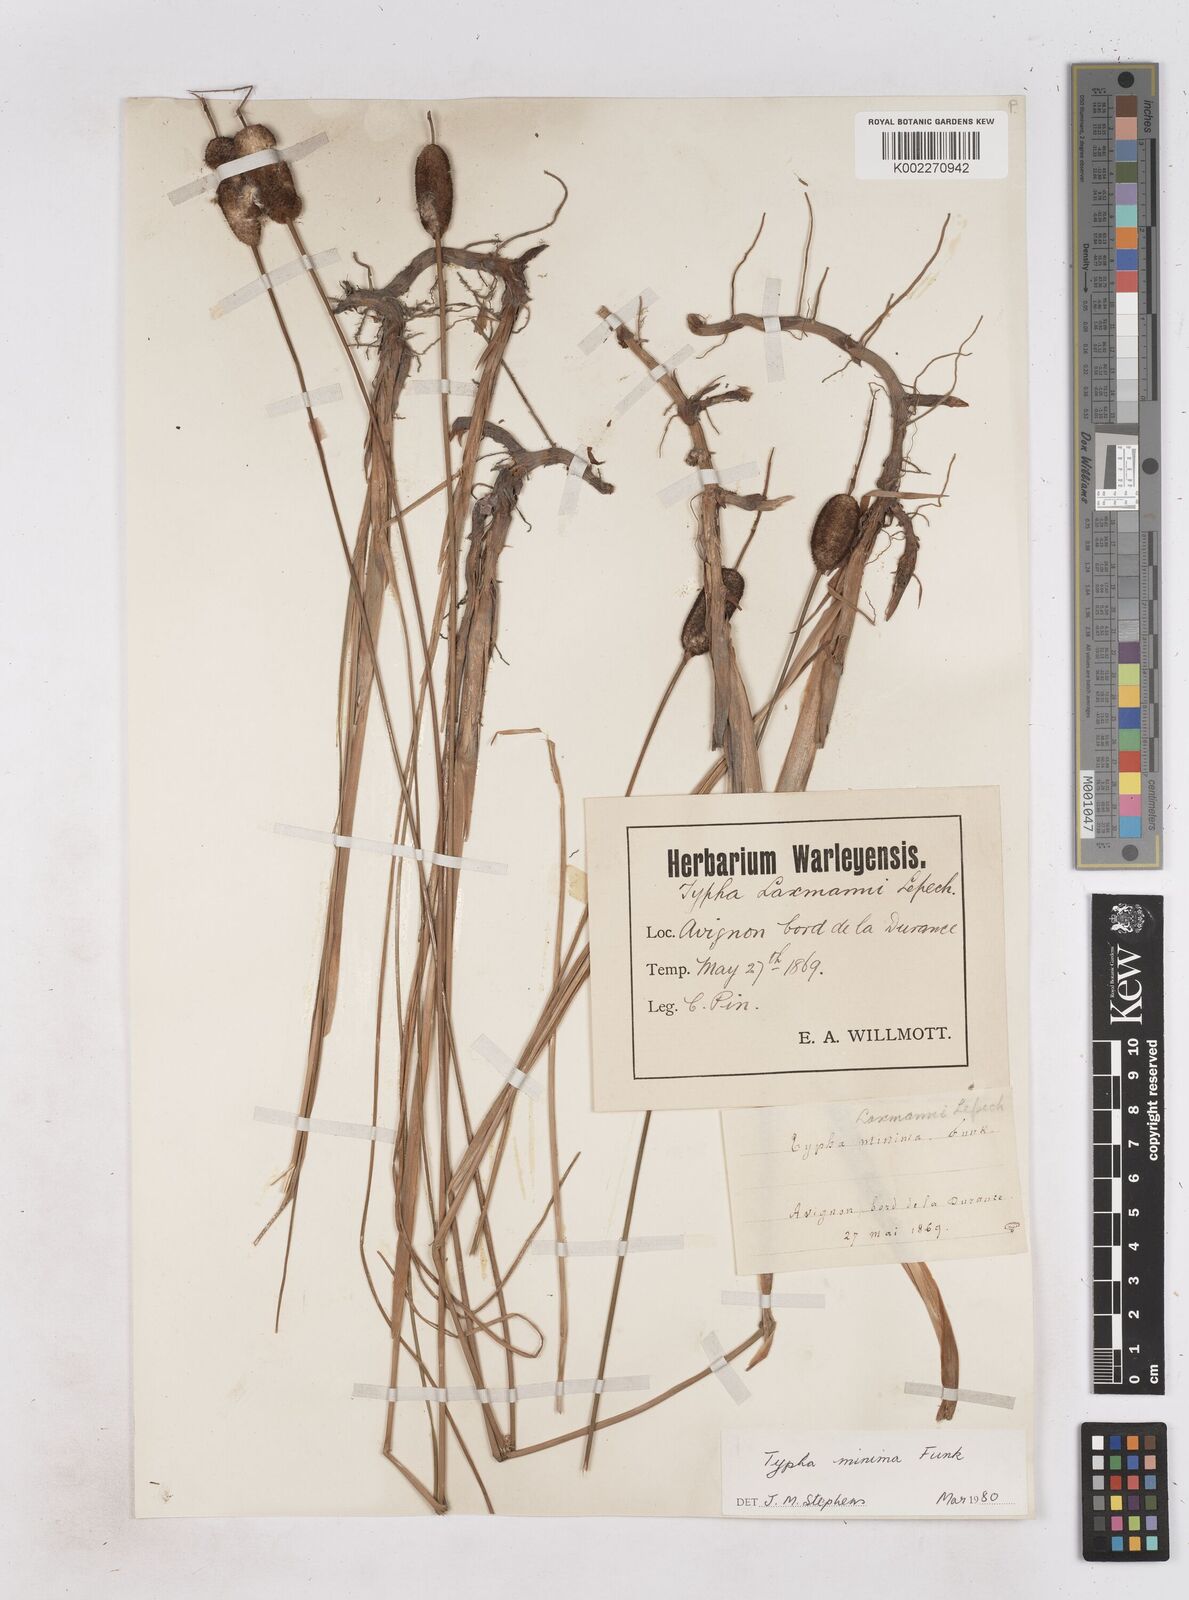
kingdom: Plantae
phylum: Tracheophyta
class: Liliopsida
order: Poales
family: Typhaceae
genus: Typha
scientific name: Typha
